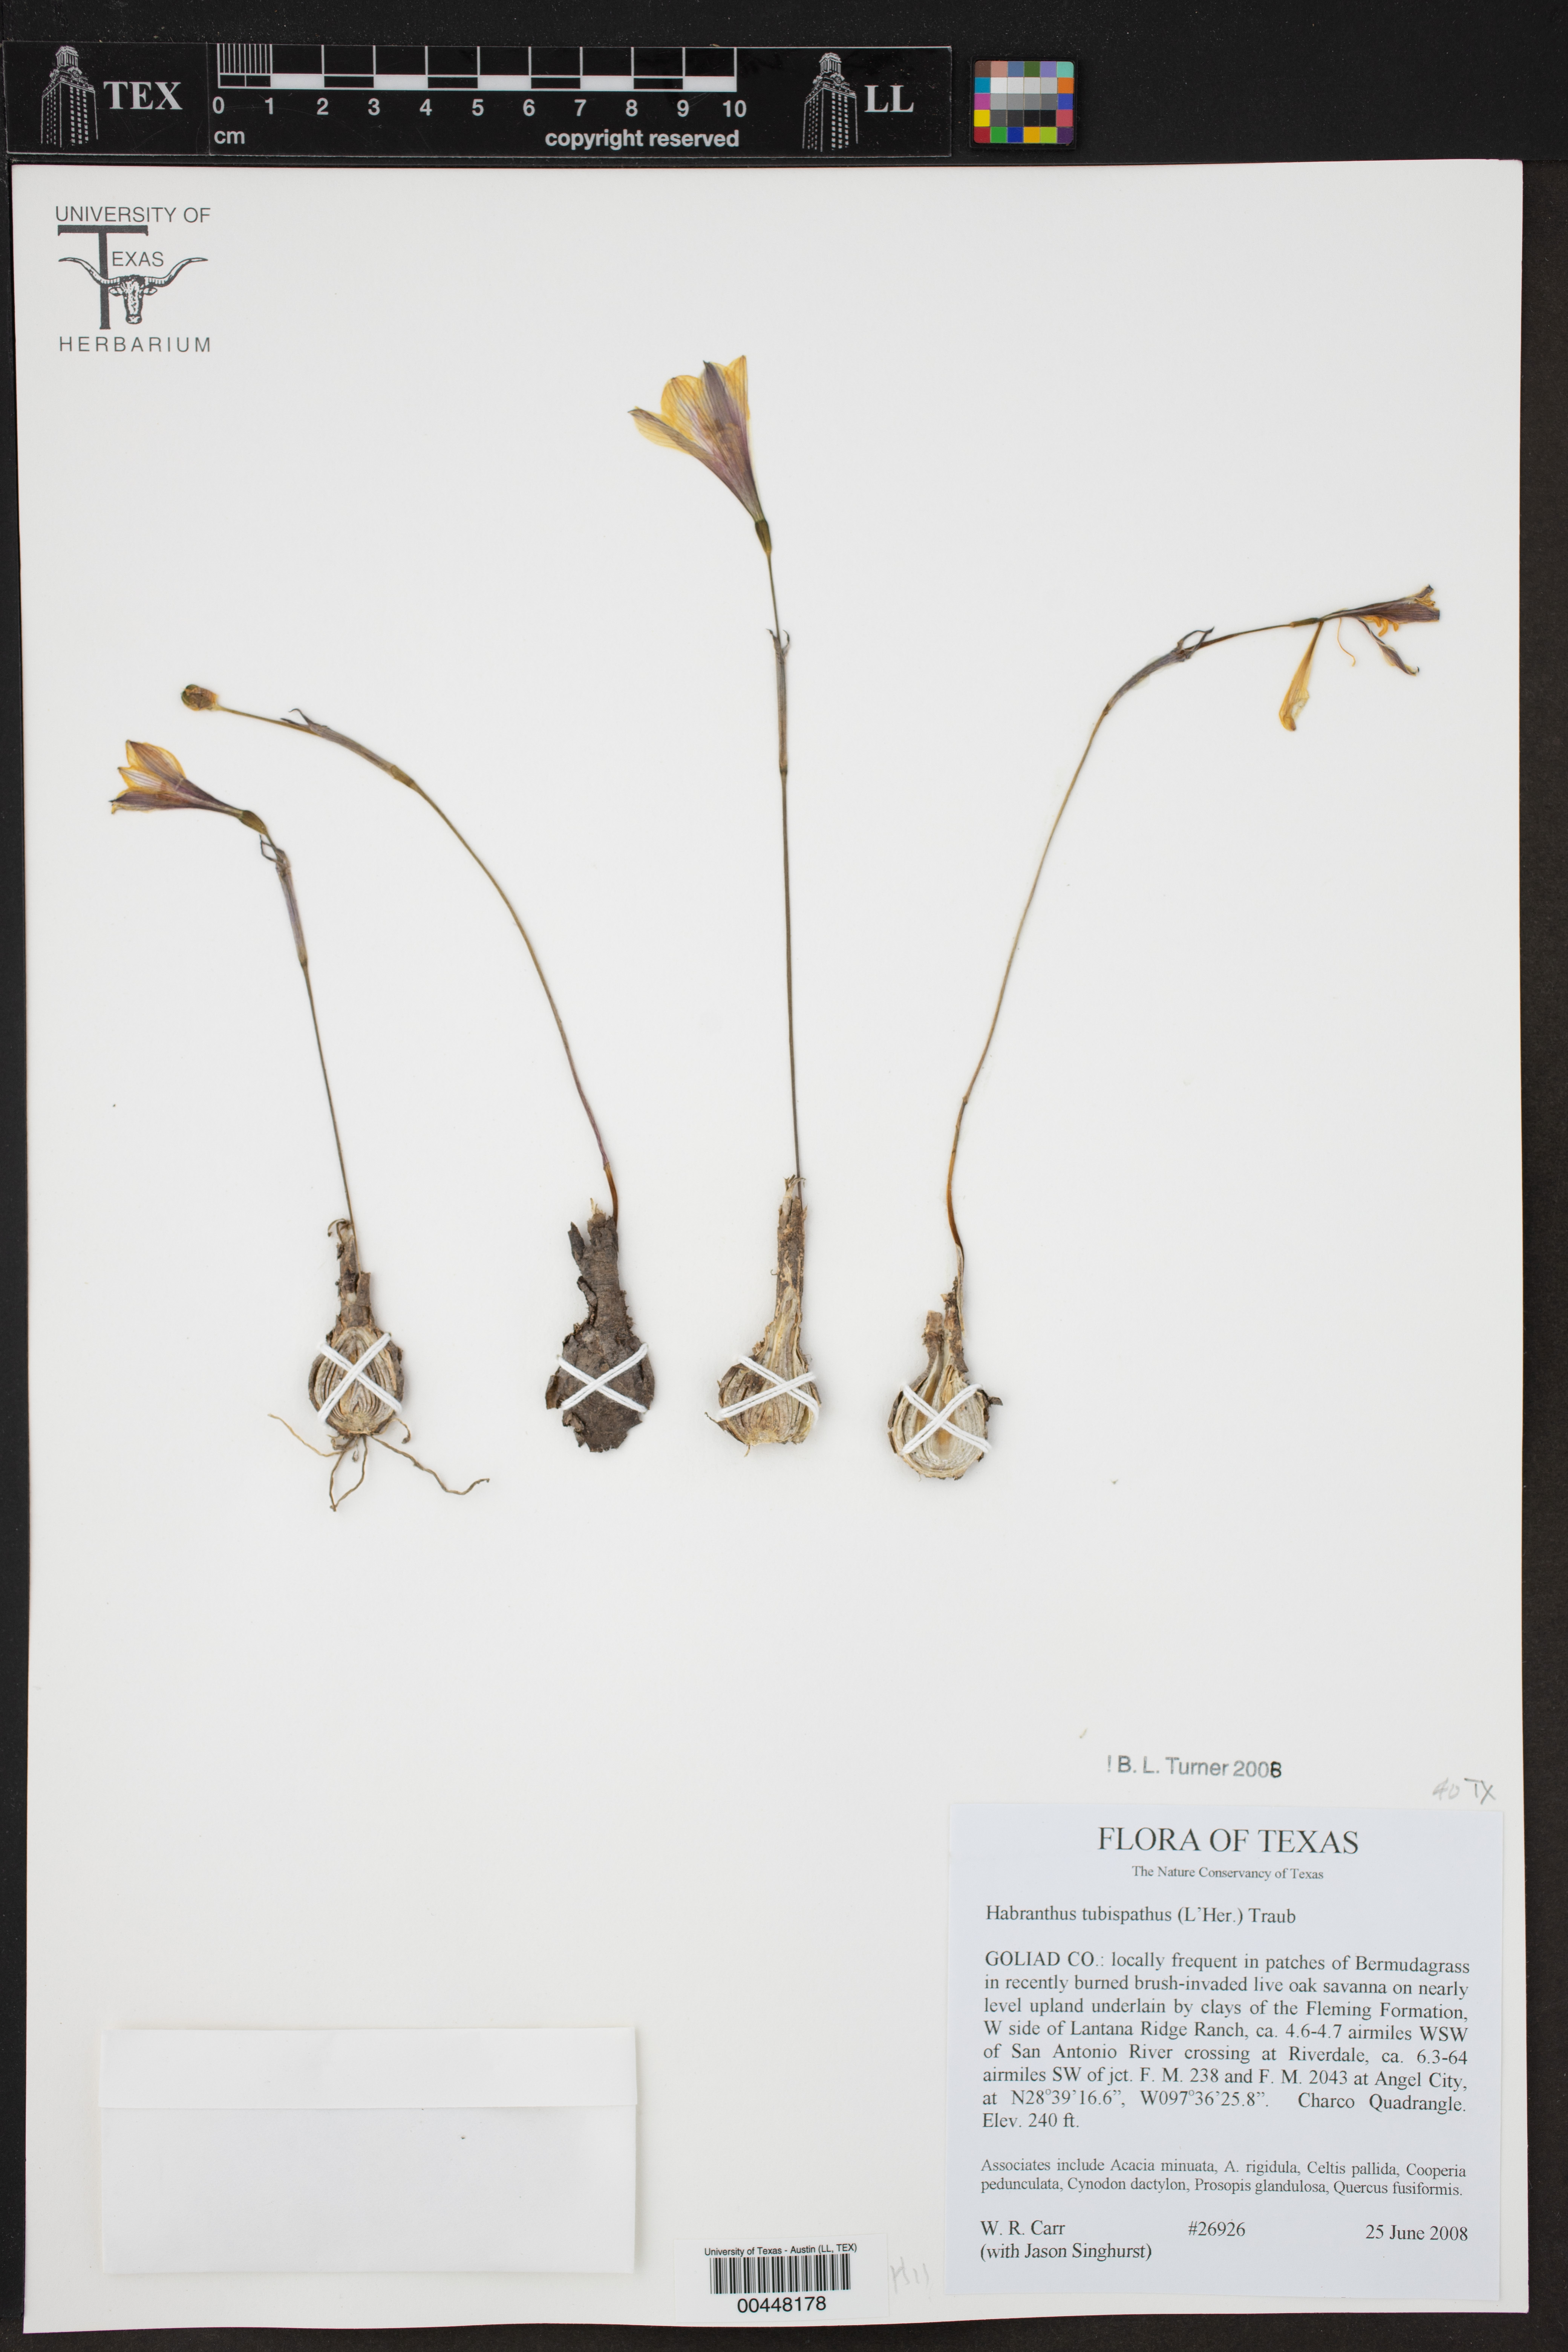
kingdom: Plantae
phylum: Tracheophyta
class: Liliopsida
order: Asparagales
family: Amaryllidaceae
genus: Zephyranthes
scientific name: Zephyranthes tubispatha
